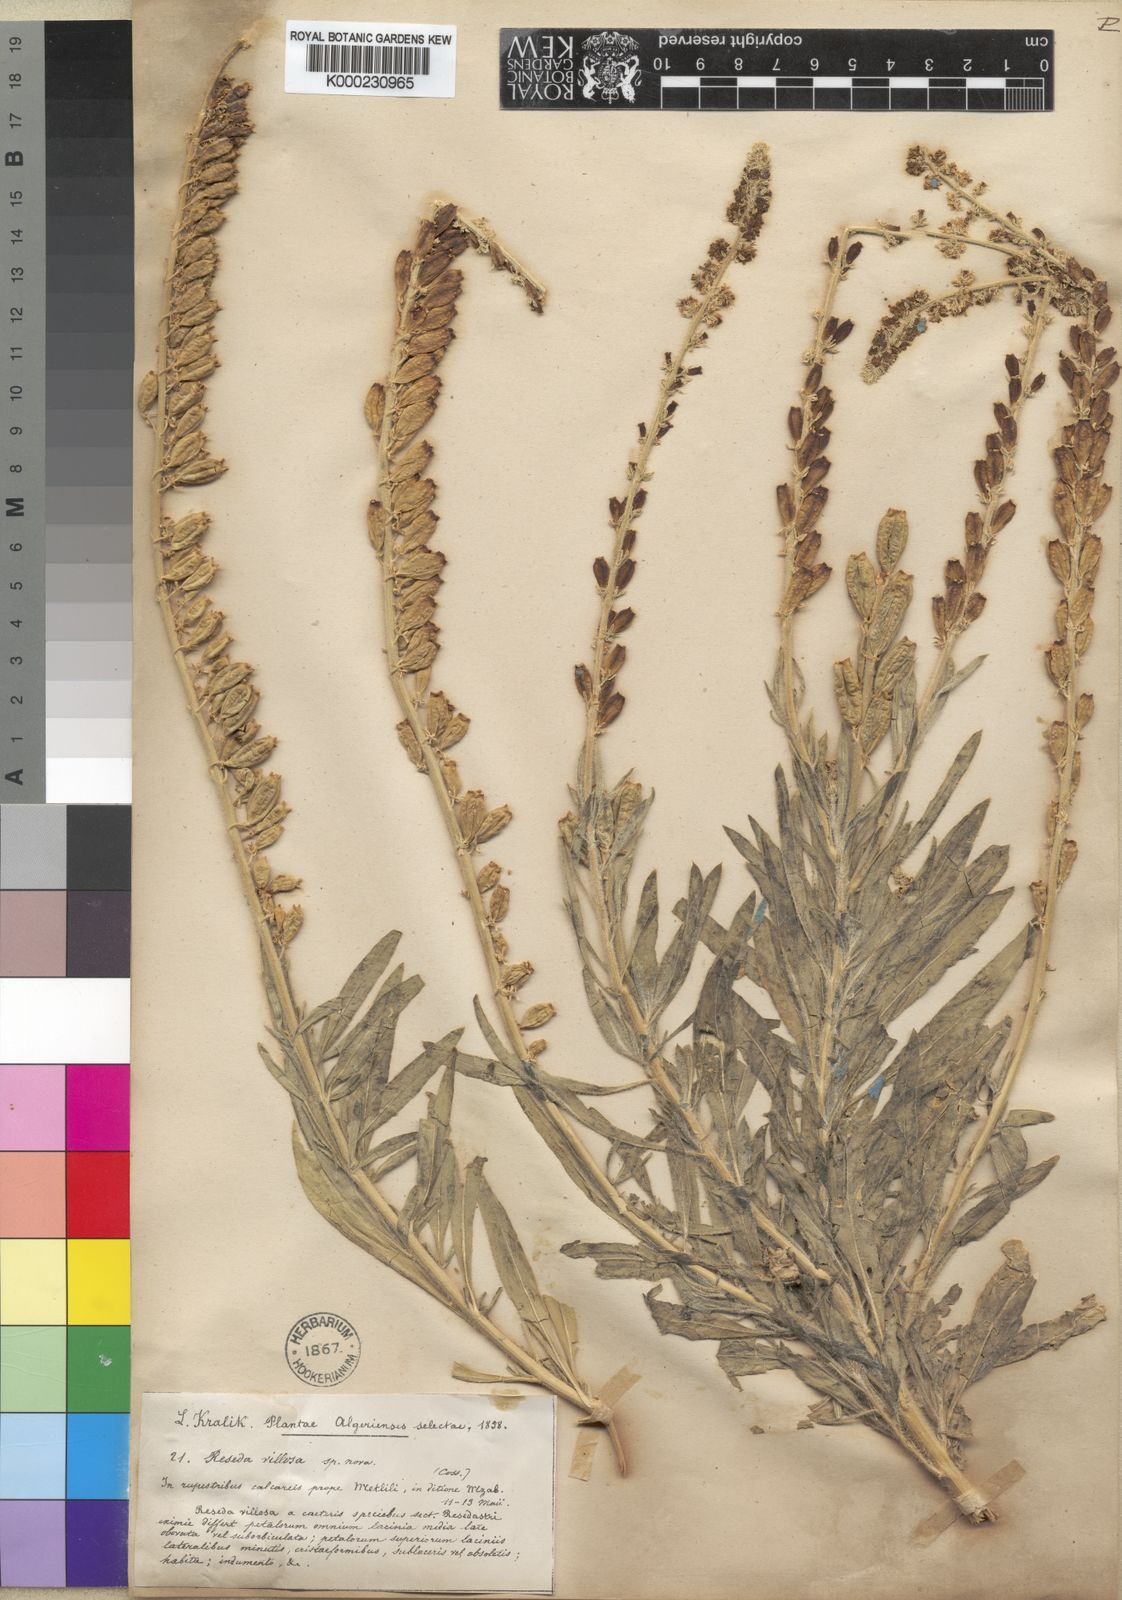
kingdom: Plantae
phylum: Tracheophyta
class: Magnoliopsida
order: Brassicales
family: Resedaceae
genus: Reseda
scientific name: Reseda villosa
